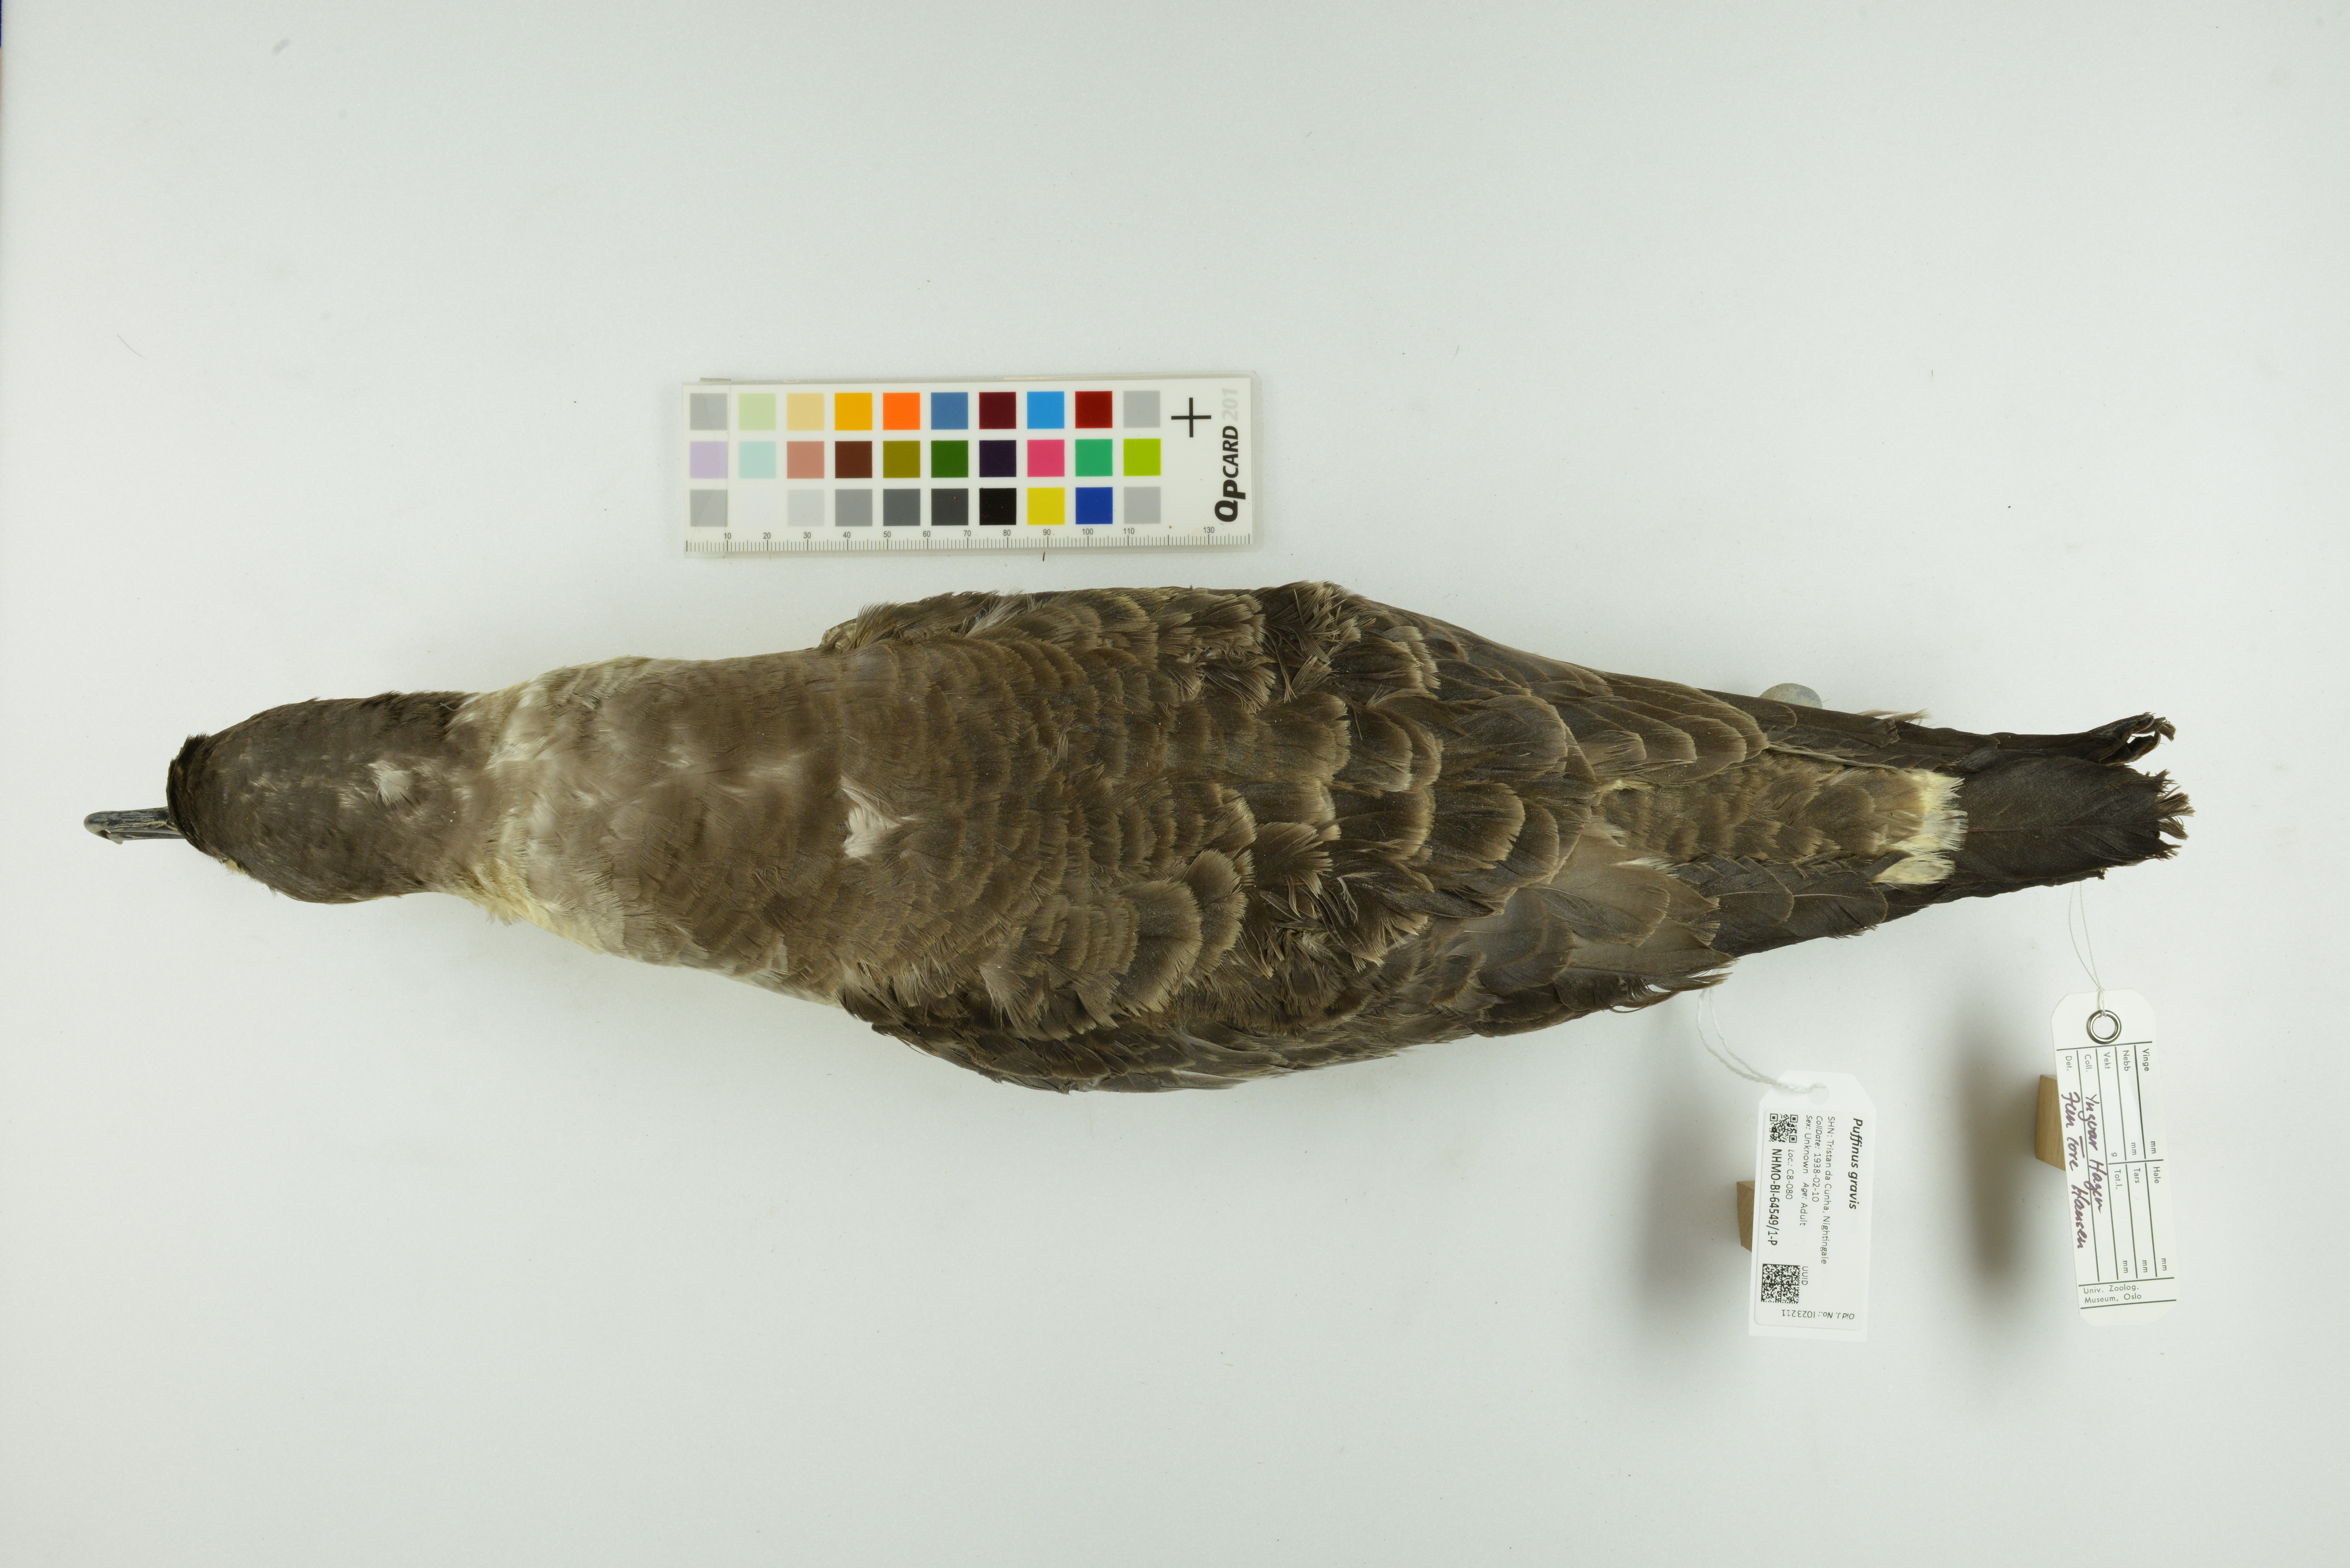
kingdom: Animalia
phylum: Chordata
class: Aves
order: Procellariiformes
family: Procellariidae
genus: Puffinus
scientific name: Puffinus gravis
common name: Great shearwater
